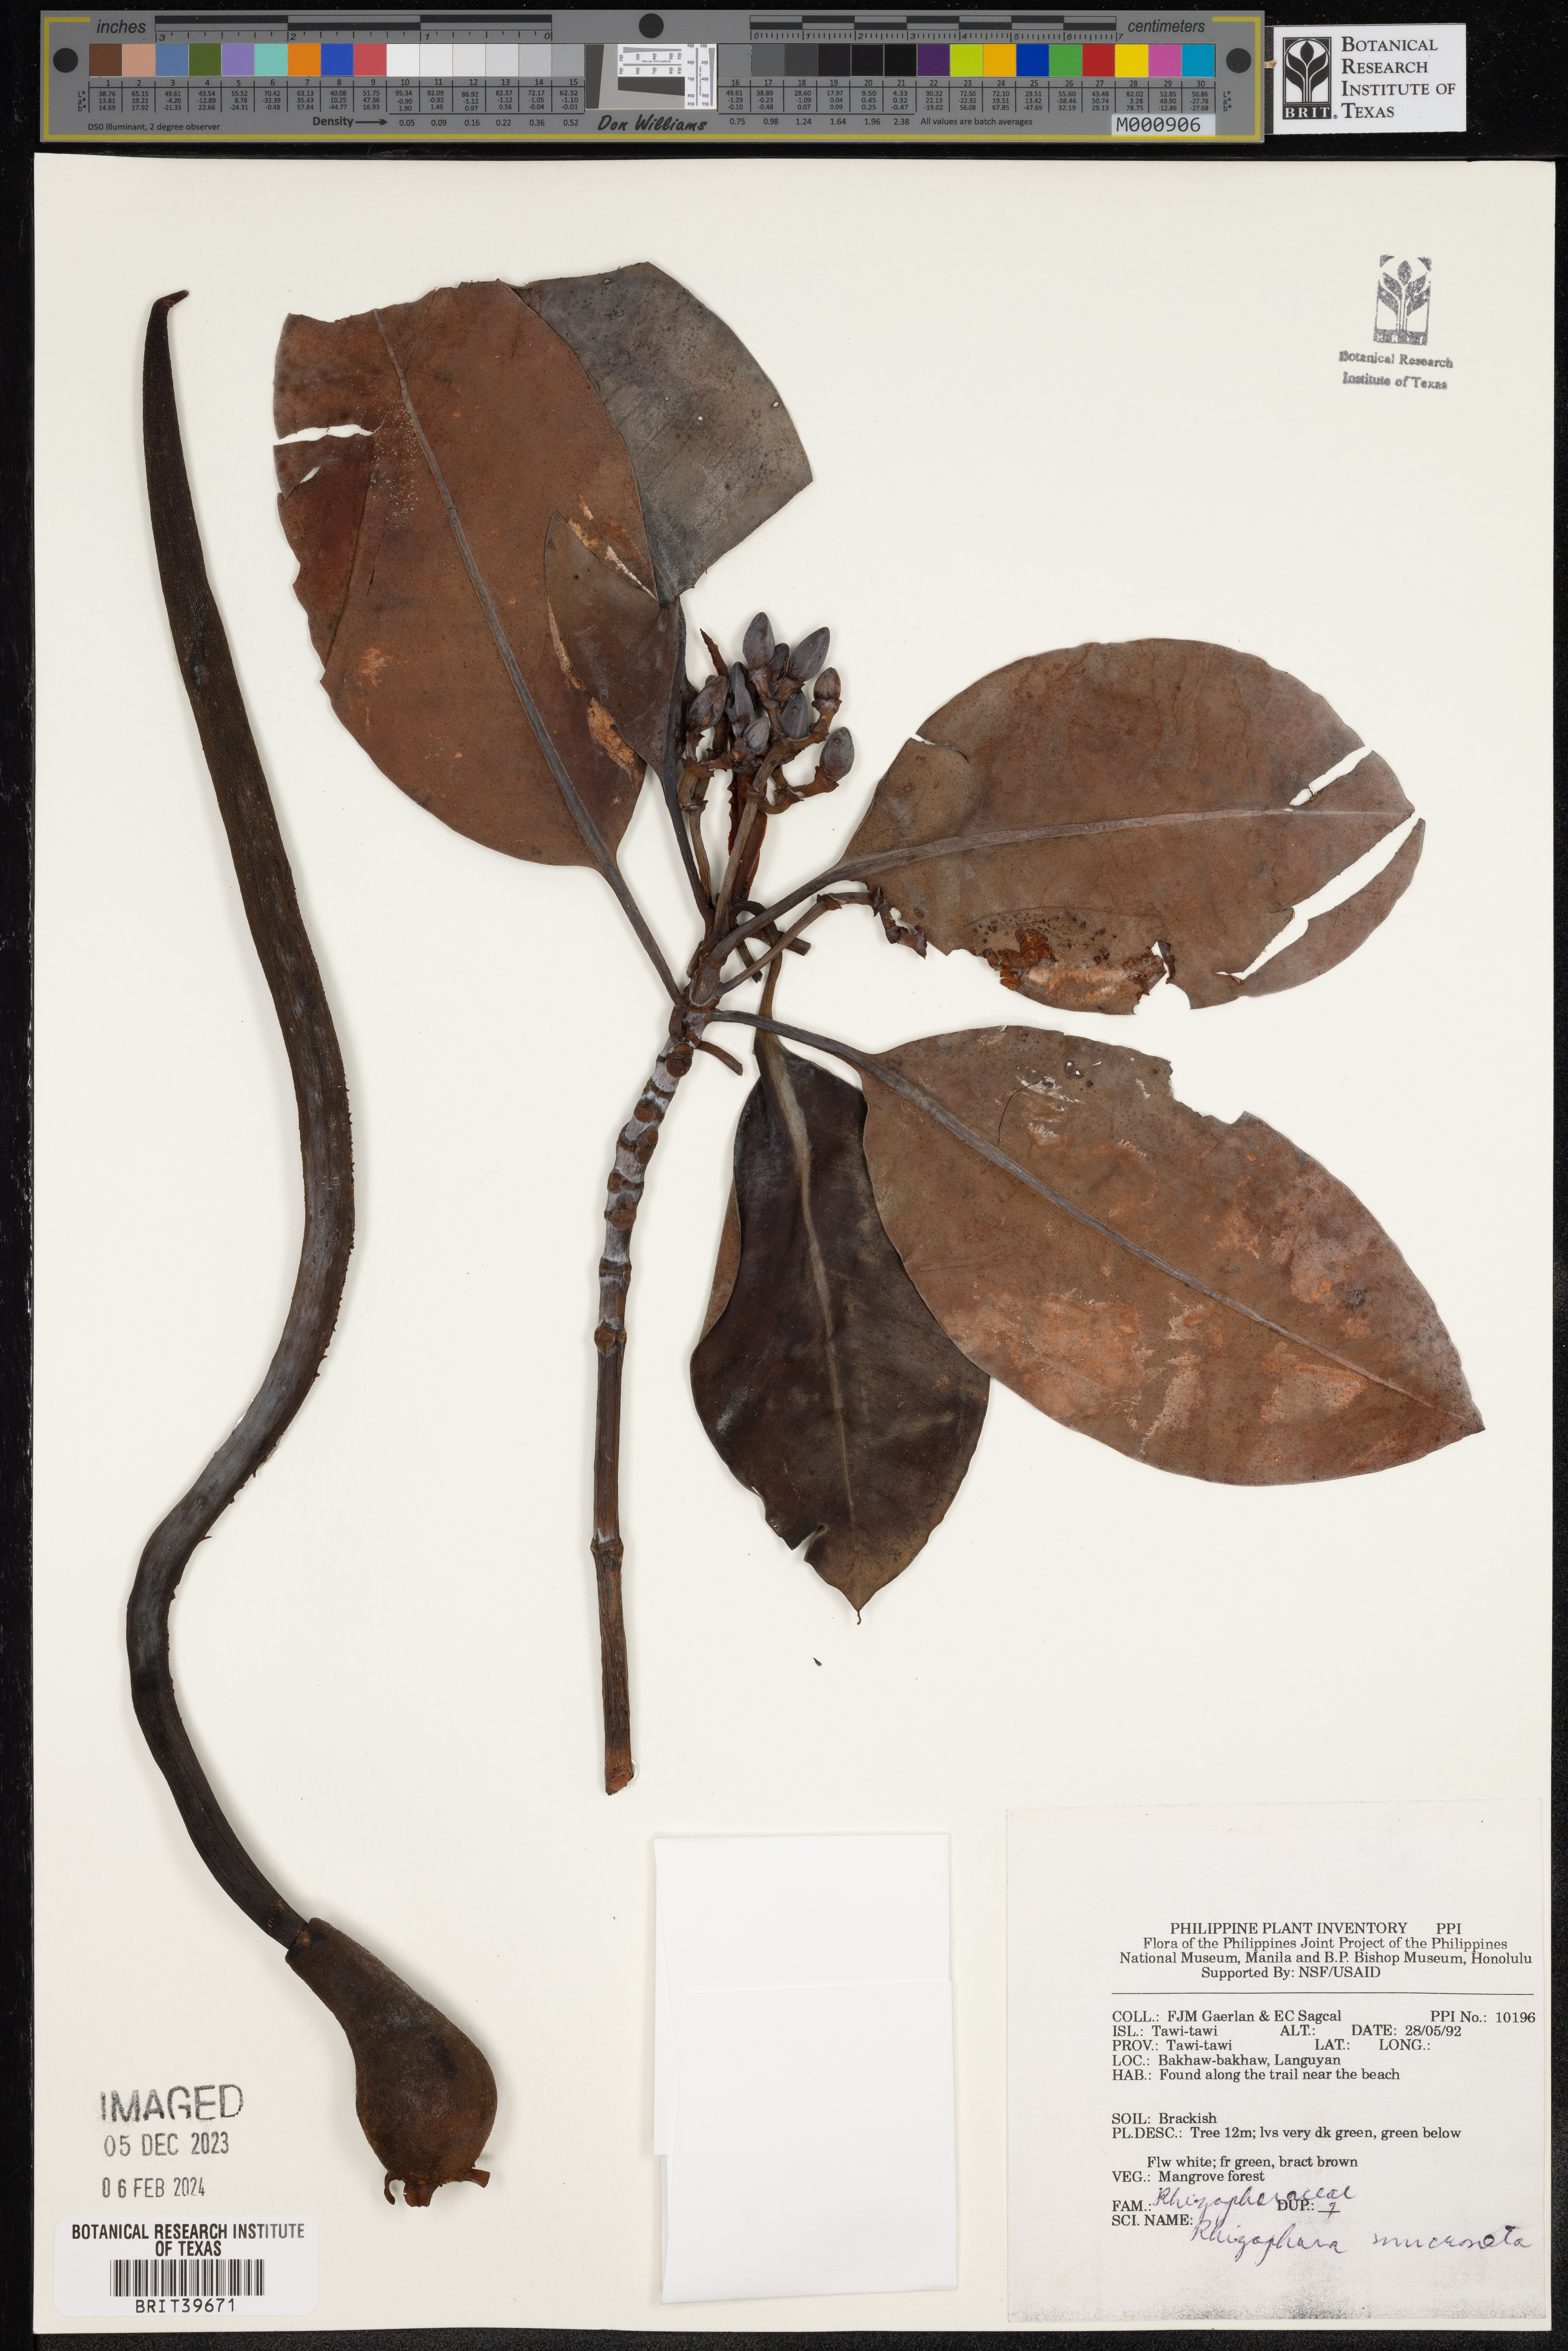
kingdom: Plantae
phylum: Tracheophyta
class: Magnoliopsida
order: Malpighiales
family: Rhizophoraceae
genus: Rhizophora
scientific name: Rhizophora mucronata
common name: Loop-root mangrove
